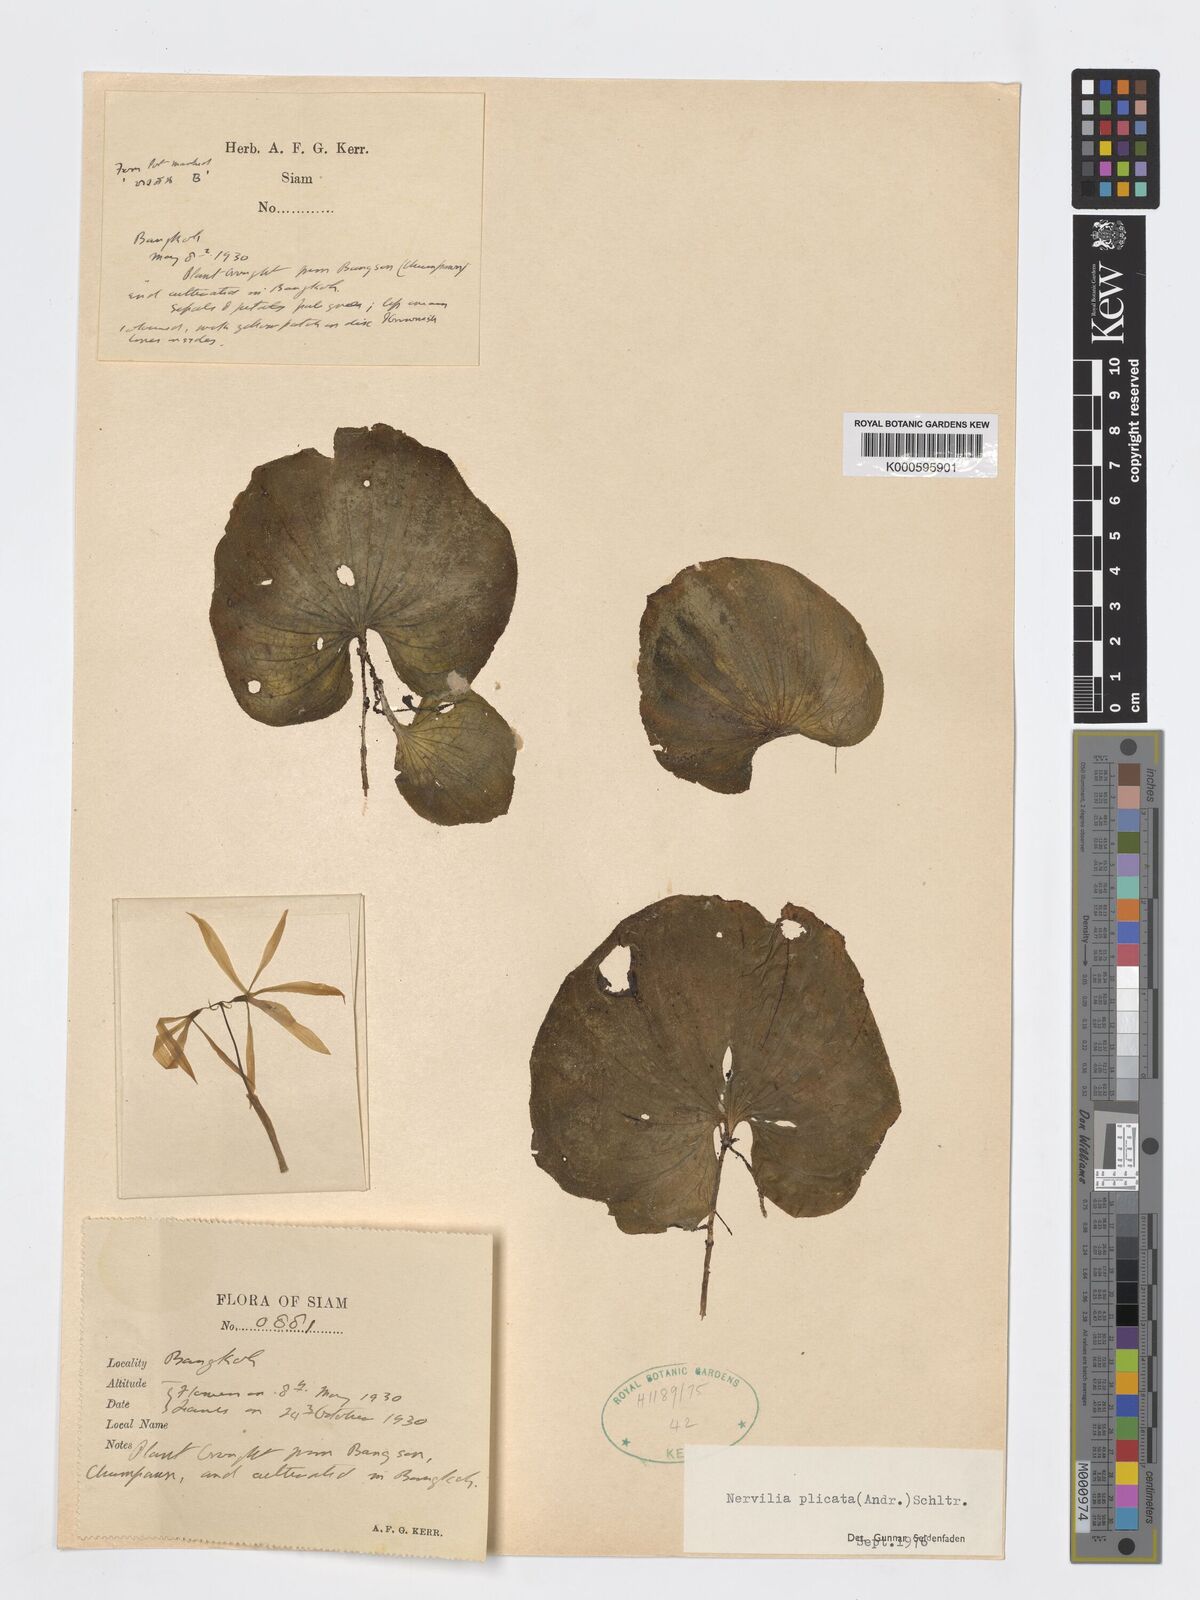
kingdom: Plantae
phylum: Tracheophyta
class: Liliopsida
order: Asparagales
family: Orchidaceae
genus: Nervilia
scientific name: Nervilia plicata
